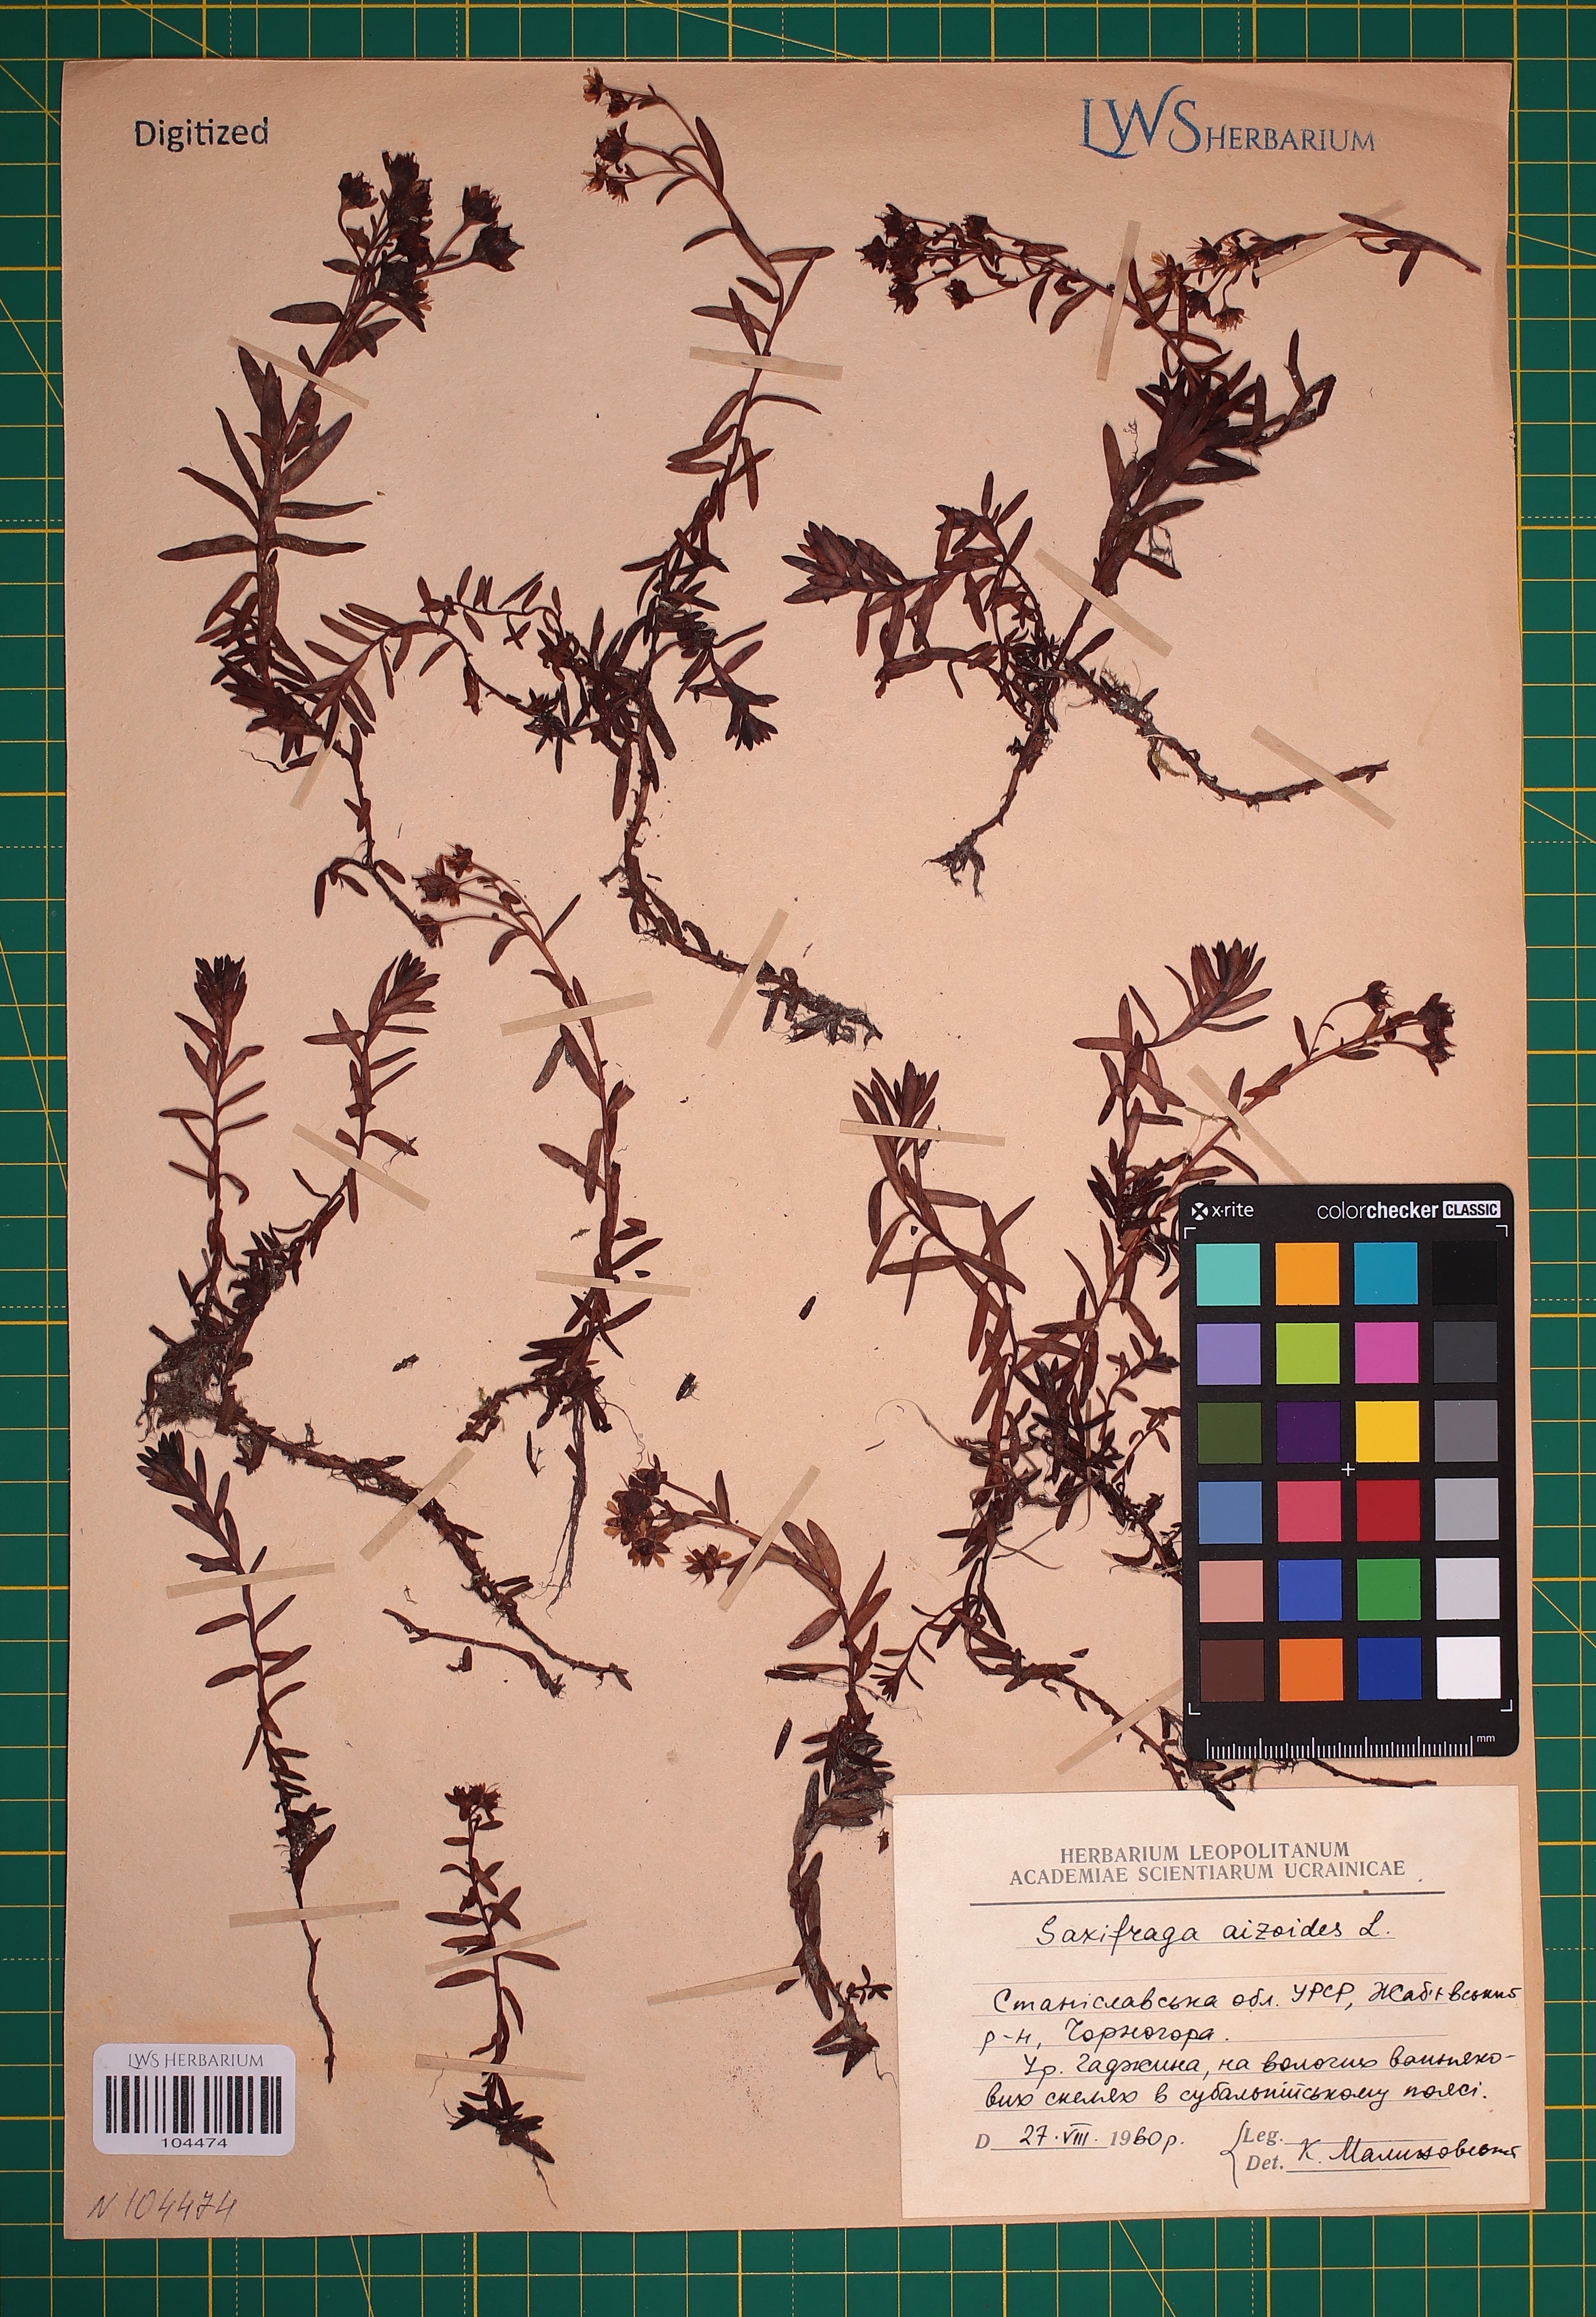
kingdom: Plantae
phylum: Tracheophyta
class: Magnoliopsida
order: Saxifragales
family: Saxifragaceae
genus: Saxifraga
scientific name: Saxifraga aizoides
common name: Yellow mountain saxifrage
